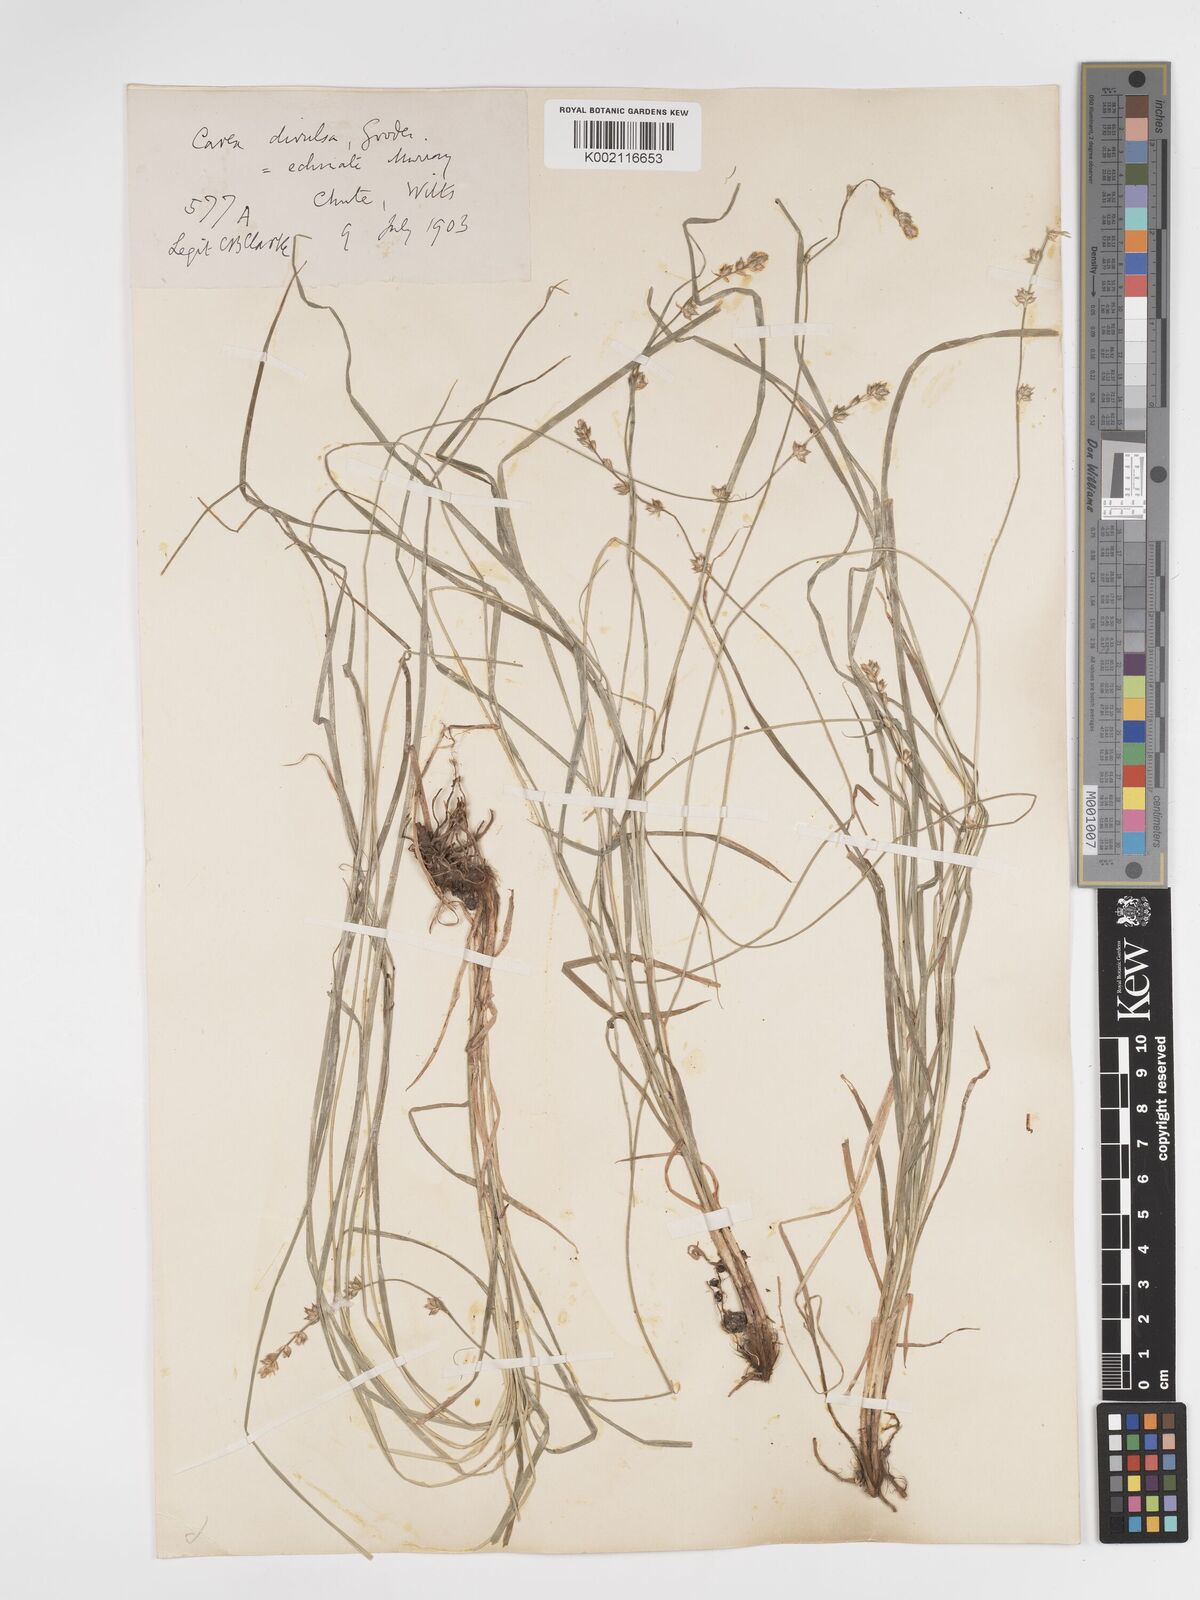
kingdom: Plantae
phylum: Tracheophyta
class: Liliopsida
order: Poales
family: Cyperaceae
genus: Carex
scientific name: Carex divulsa
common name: Grassland sedge
